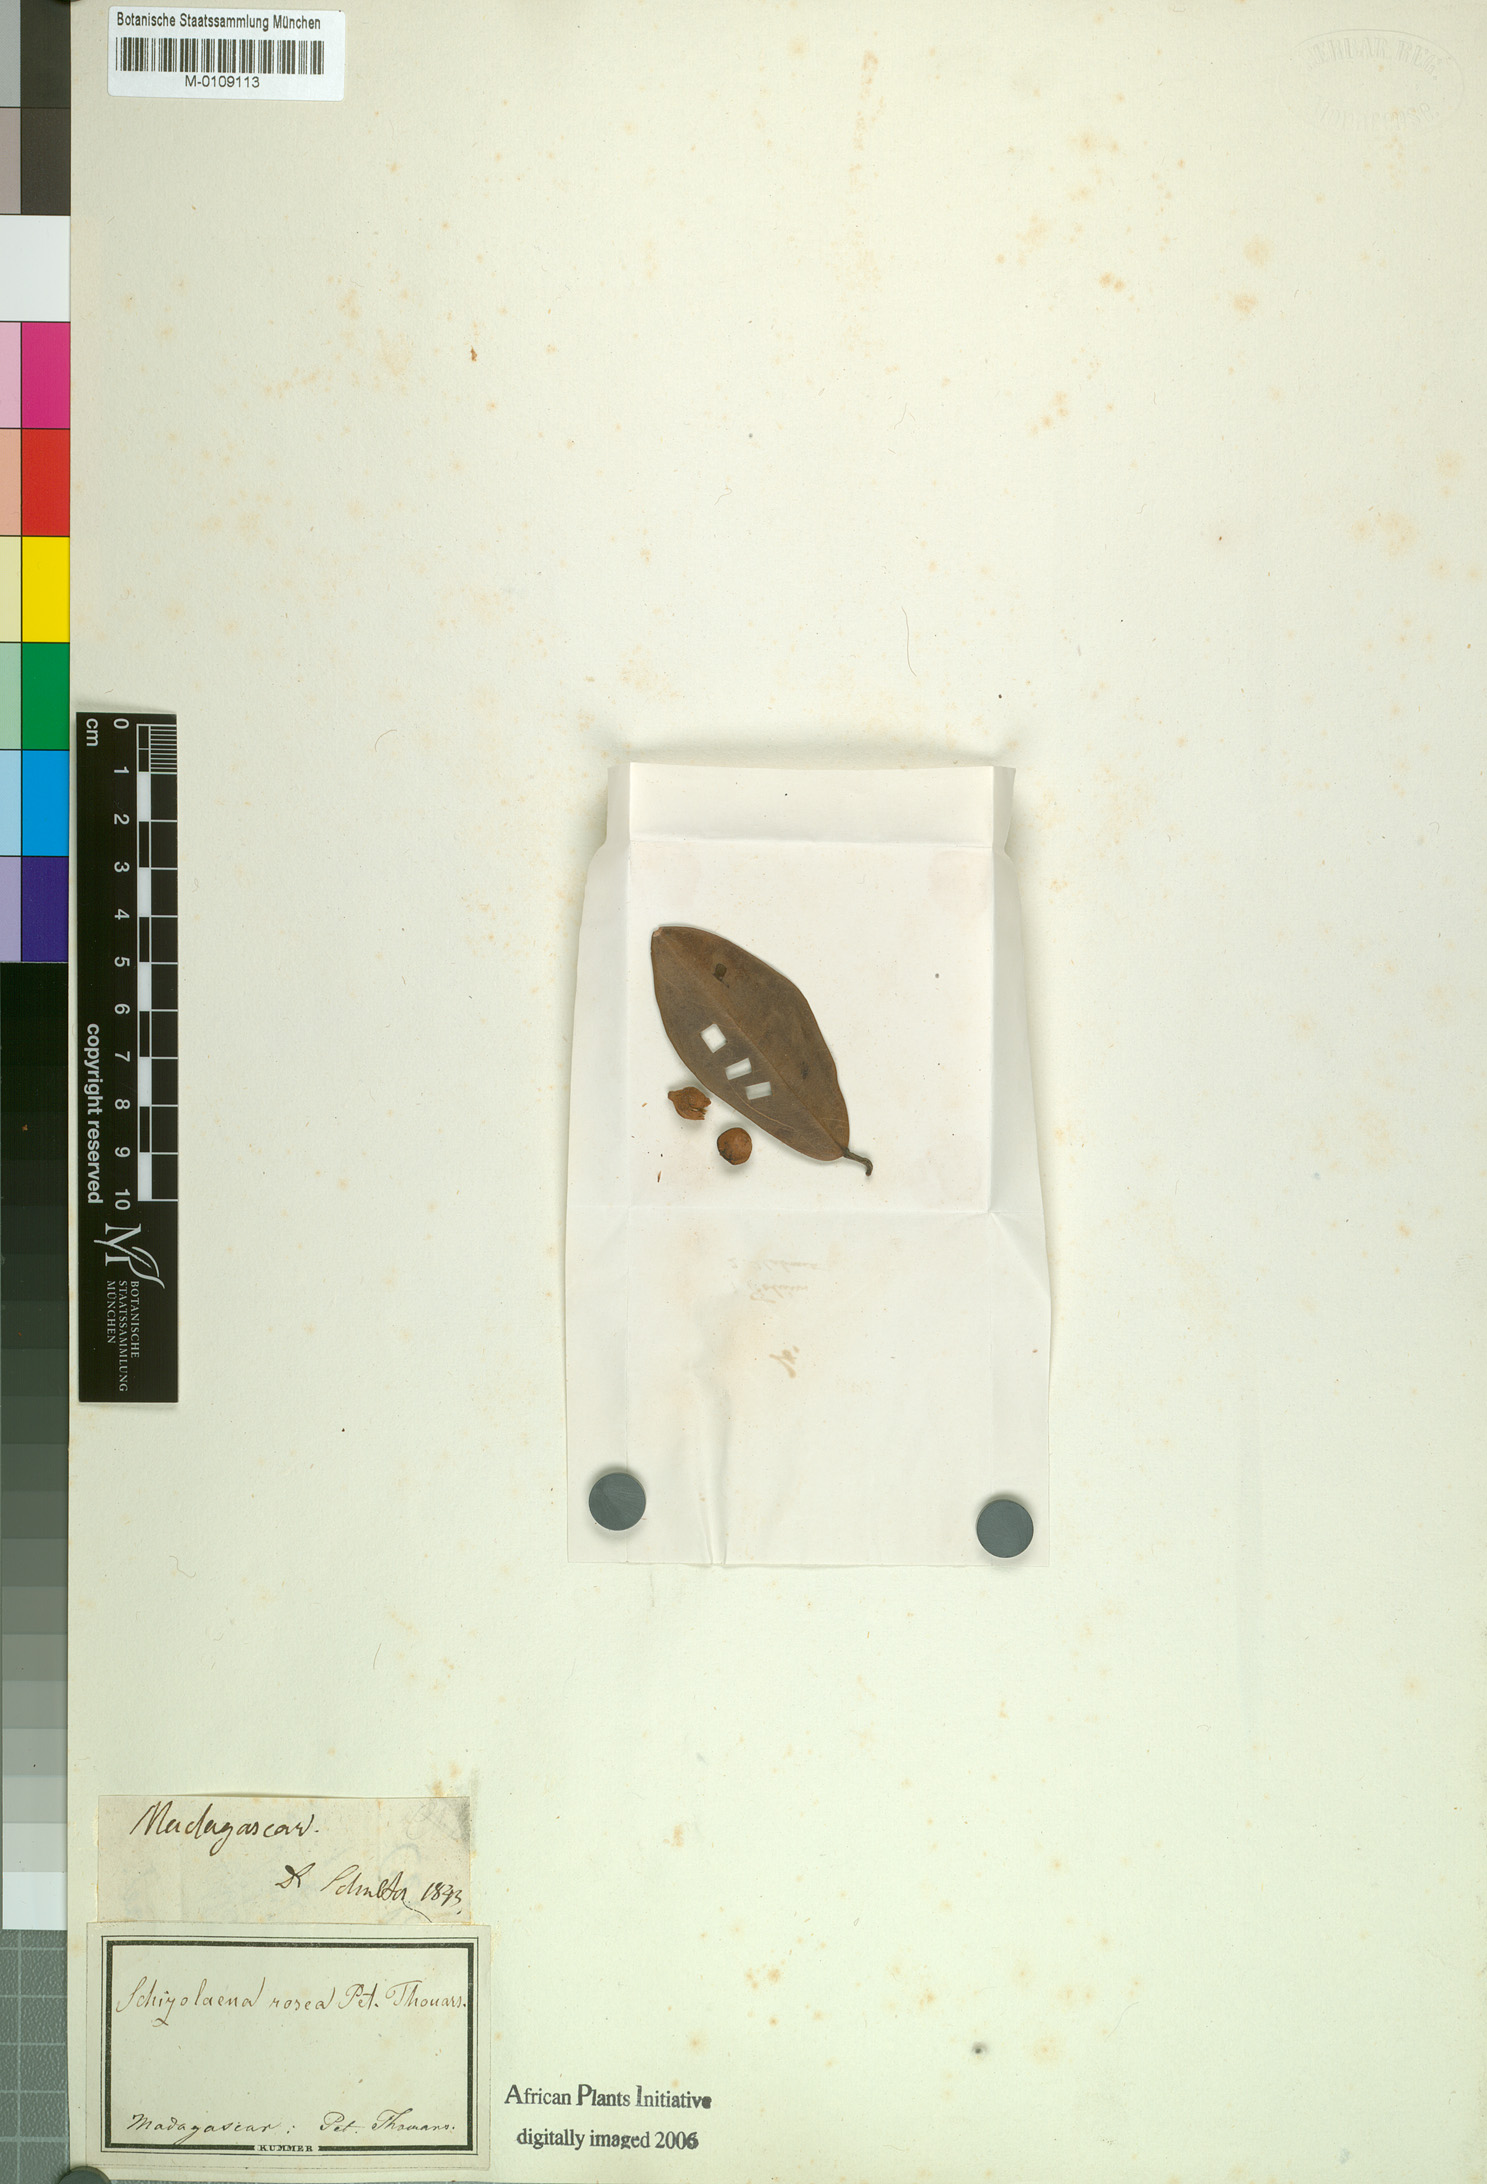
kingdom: Plantae
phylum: Tracheophyta
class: Magnoliopsida
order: Malvales
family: Sarcolaenaceae
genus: Schizolaena
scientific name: Schizolaena rosea
